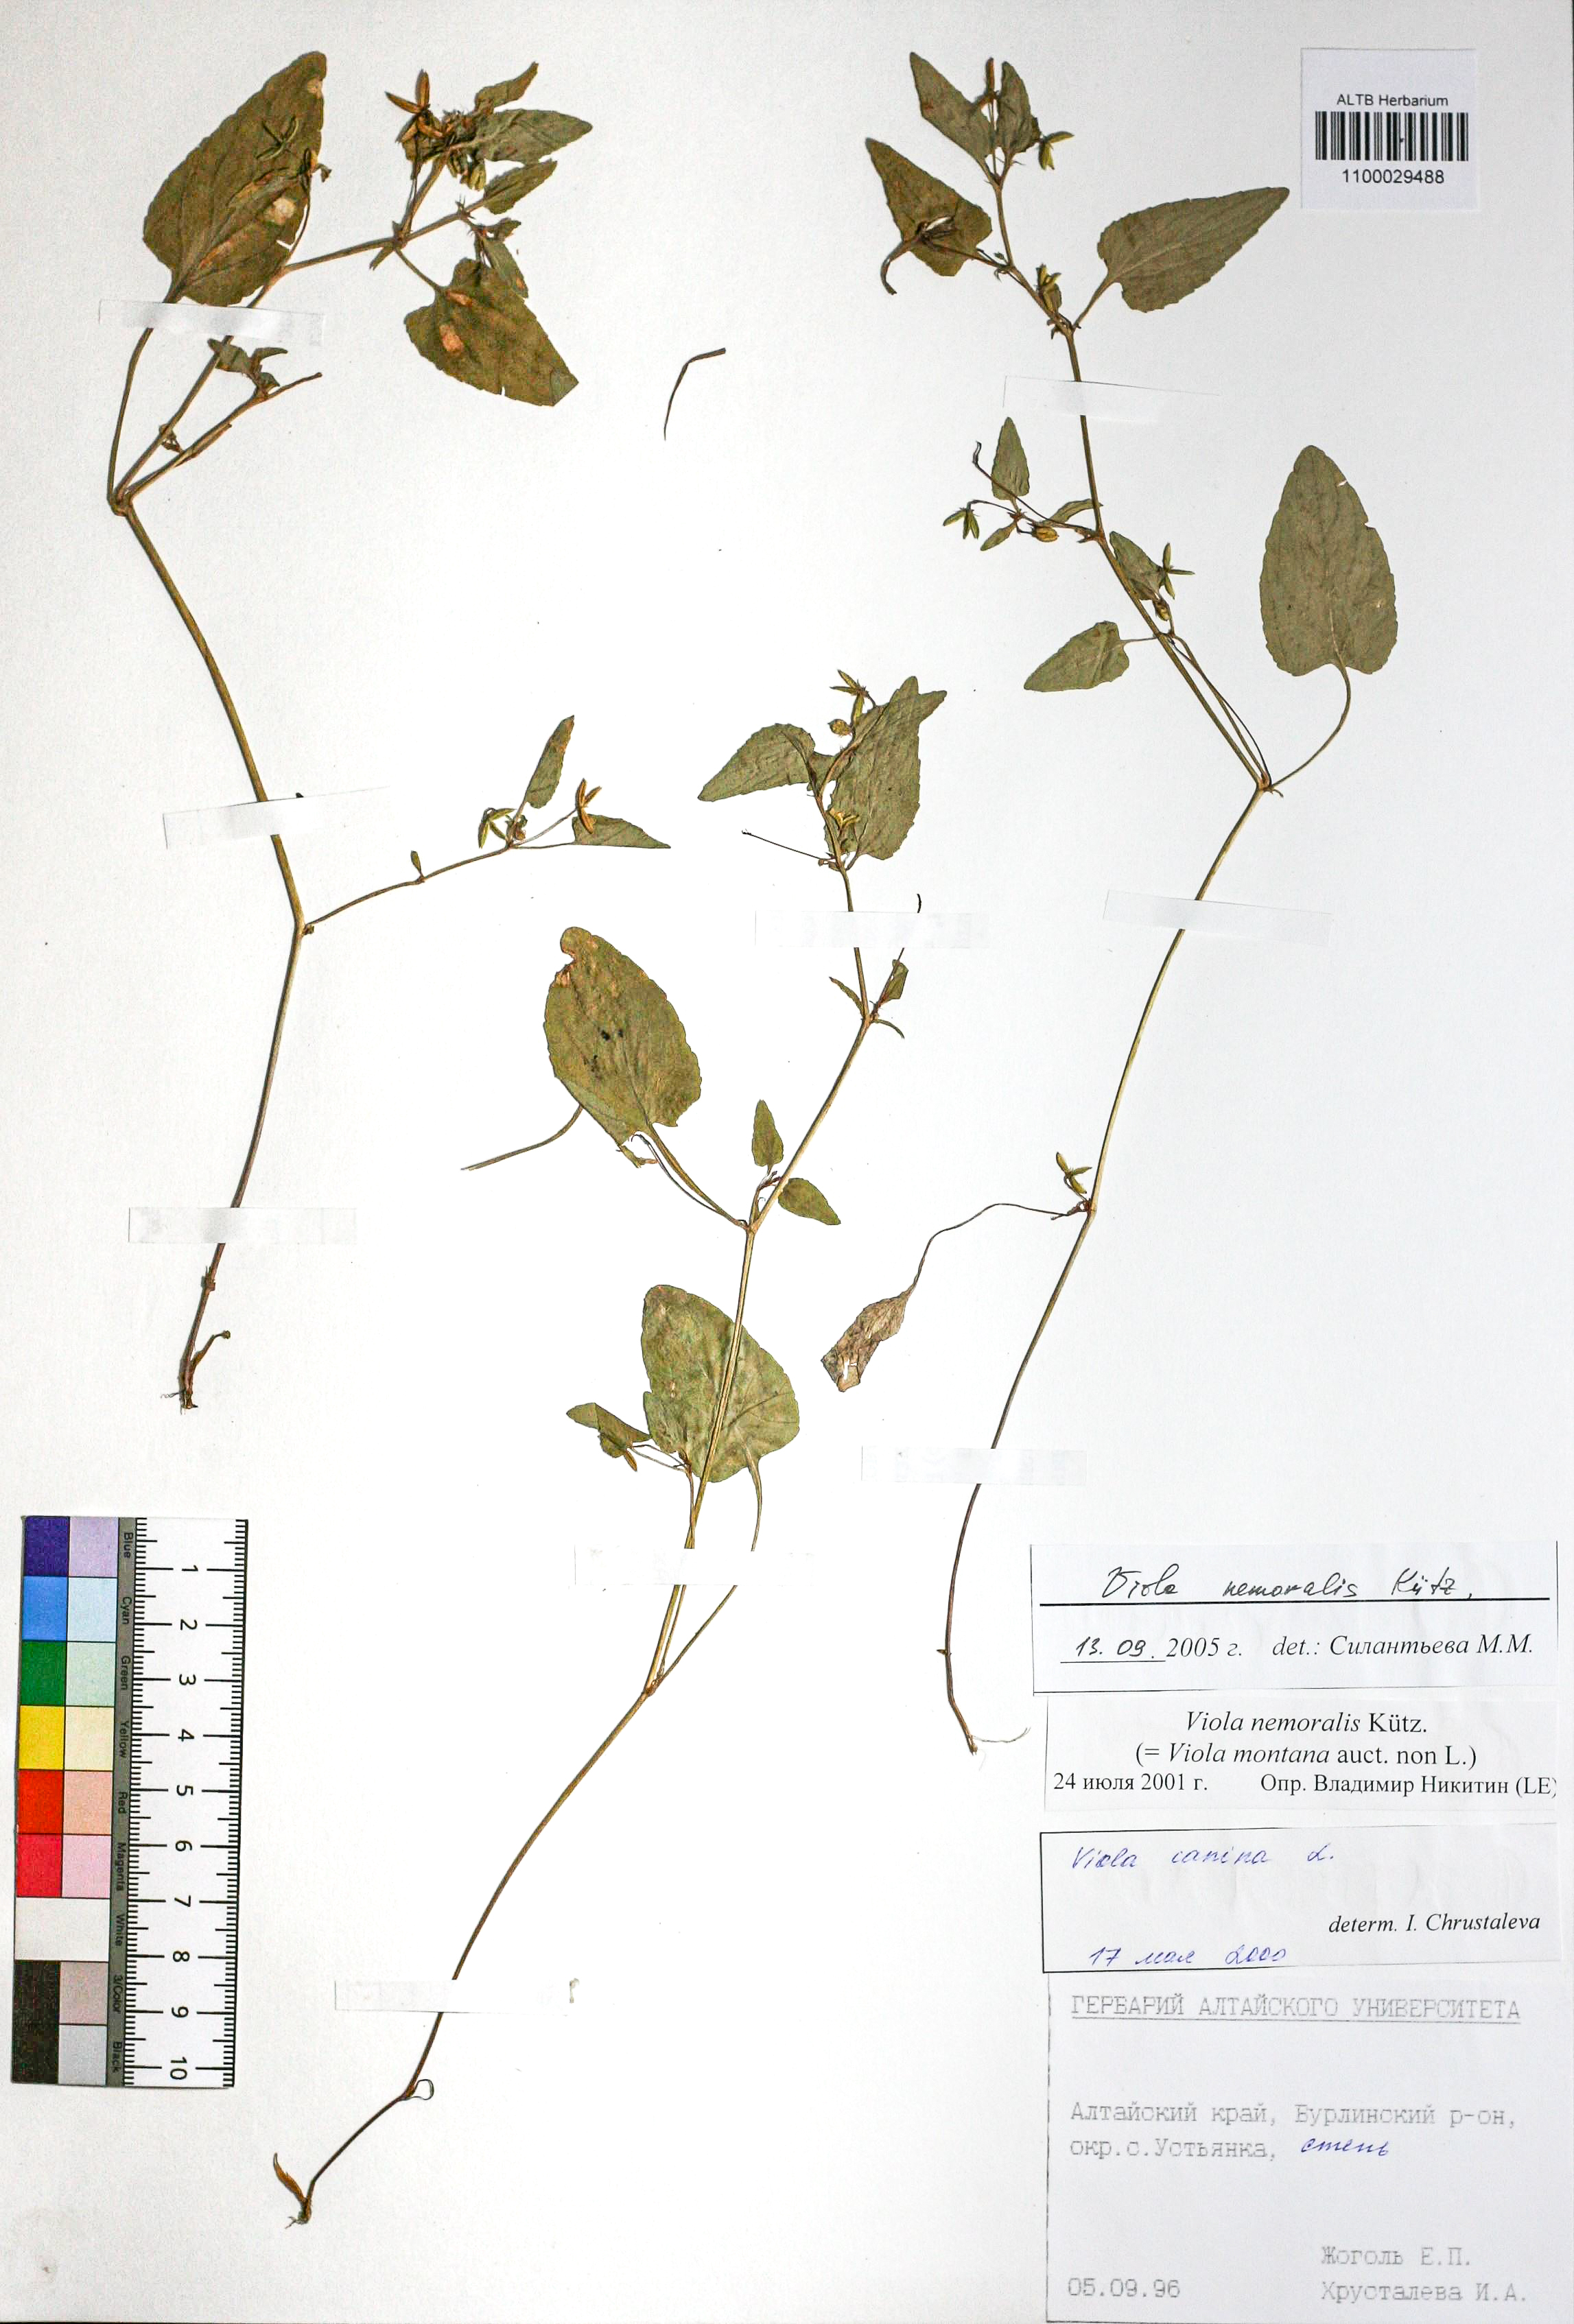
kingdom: Plantae
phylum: Tracheophyta
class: Magnoliopsida
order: Malpighiales
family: Violaceae
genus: Viola
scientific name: Viola ruppii
